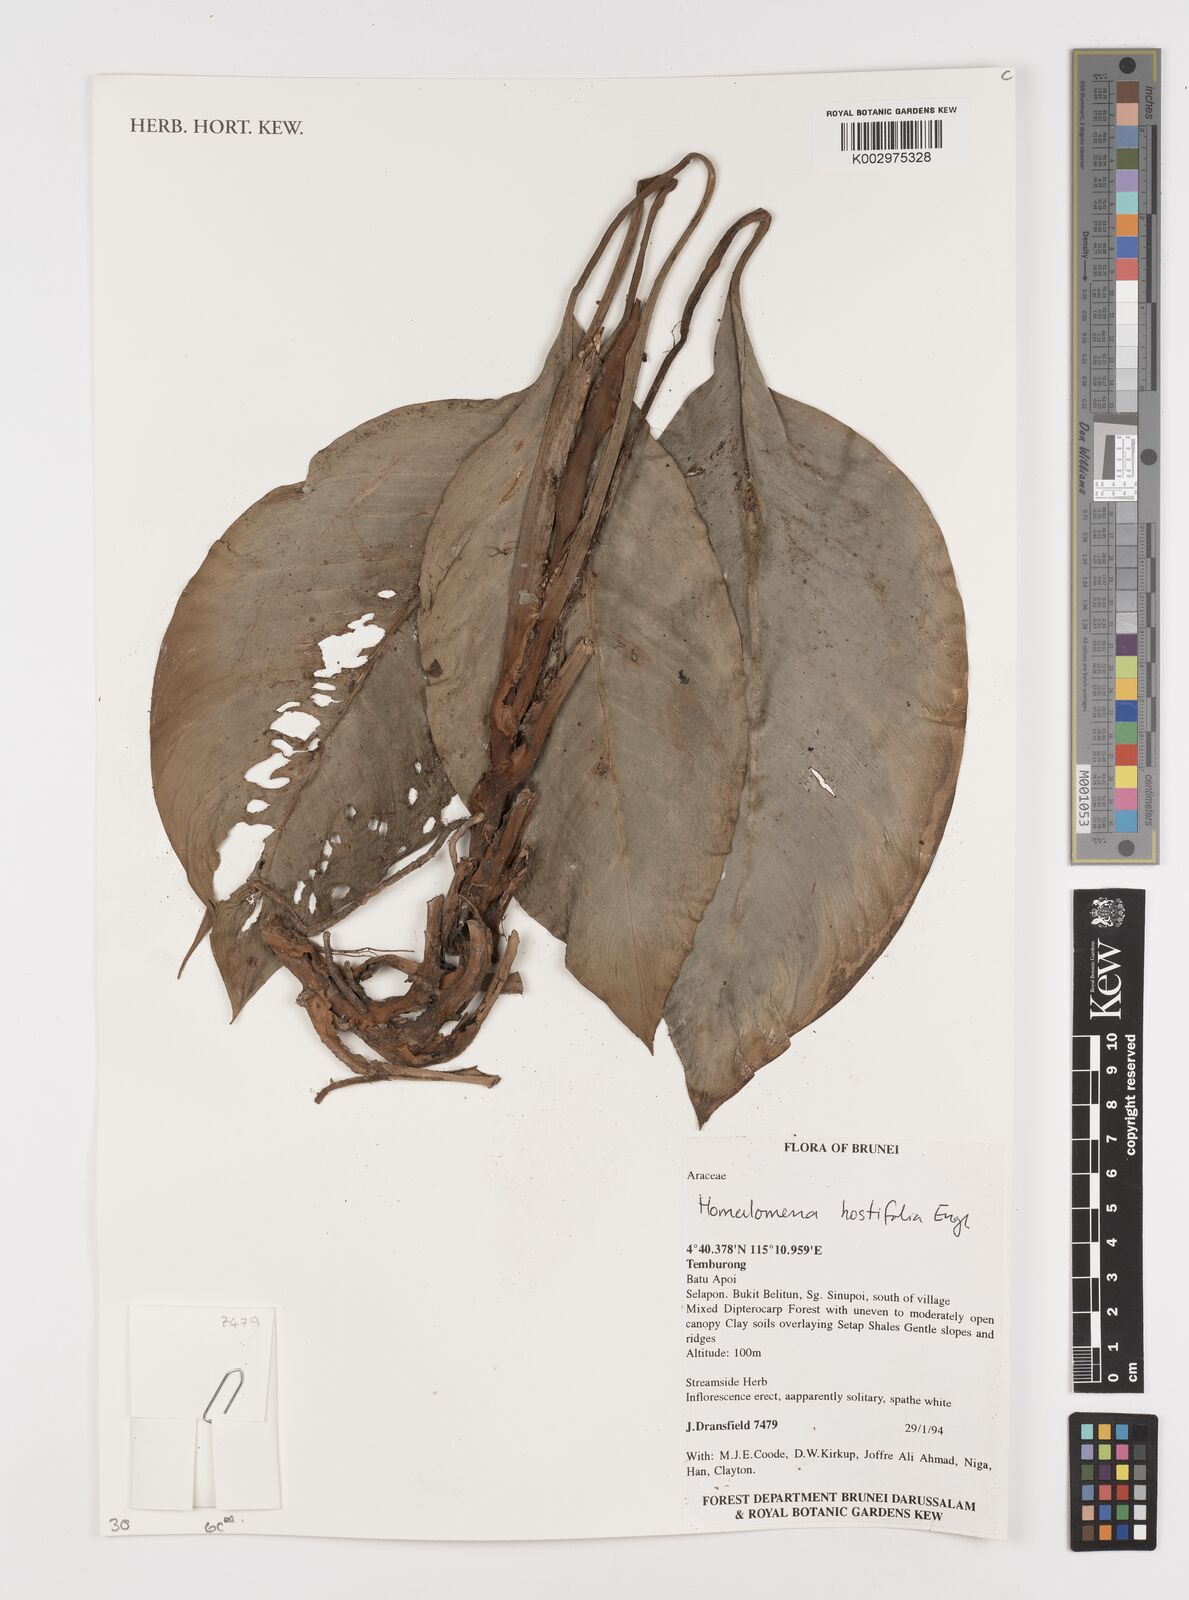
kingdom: Plantae
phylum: Tracheophyta
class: Liliopsida
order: Alismatales
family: Araceae
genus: Homalomena
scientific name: Homalomena ovata
